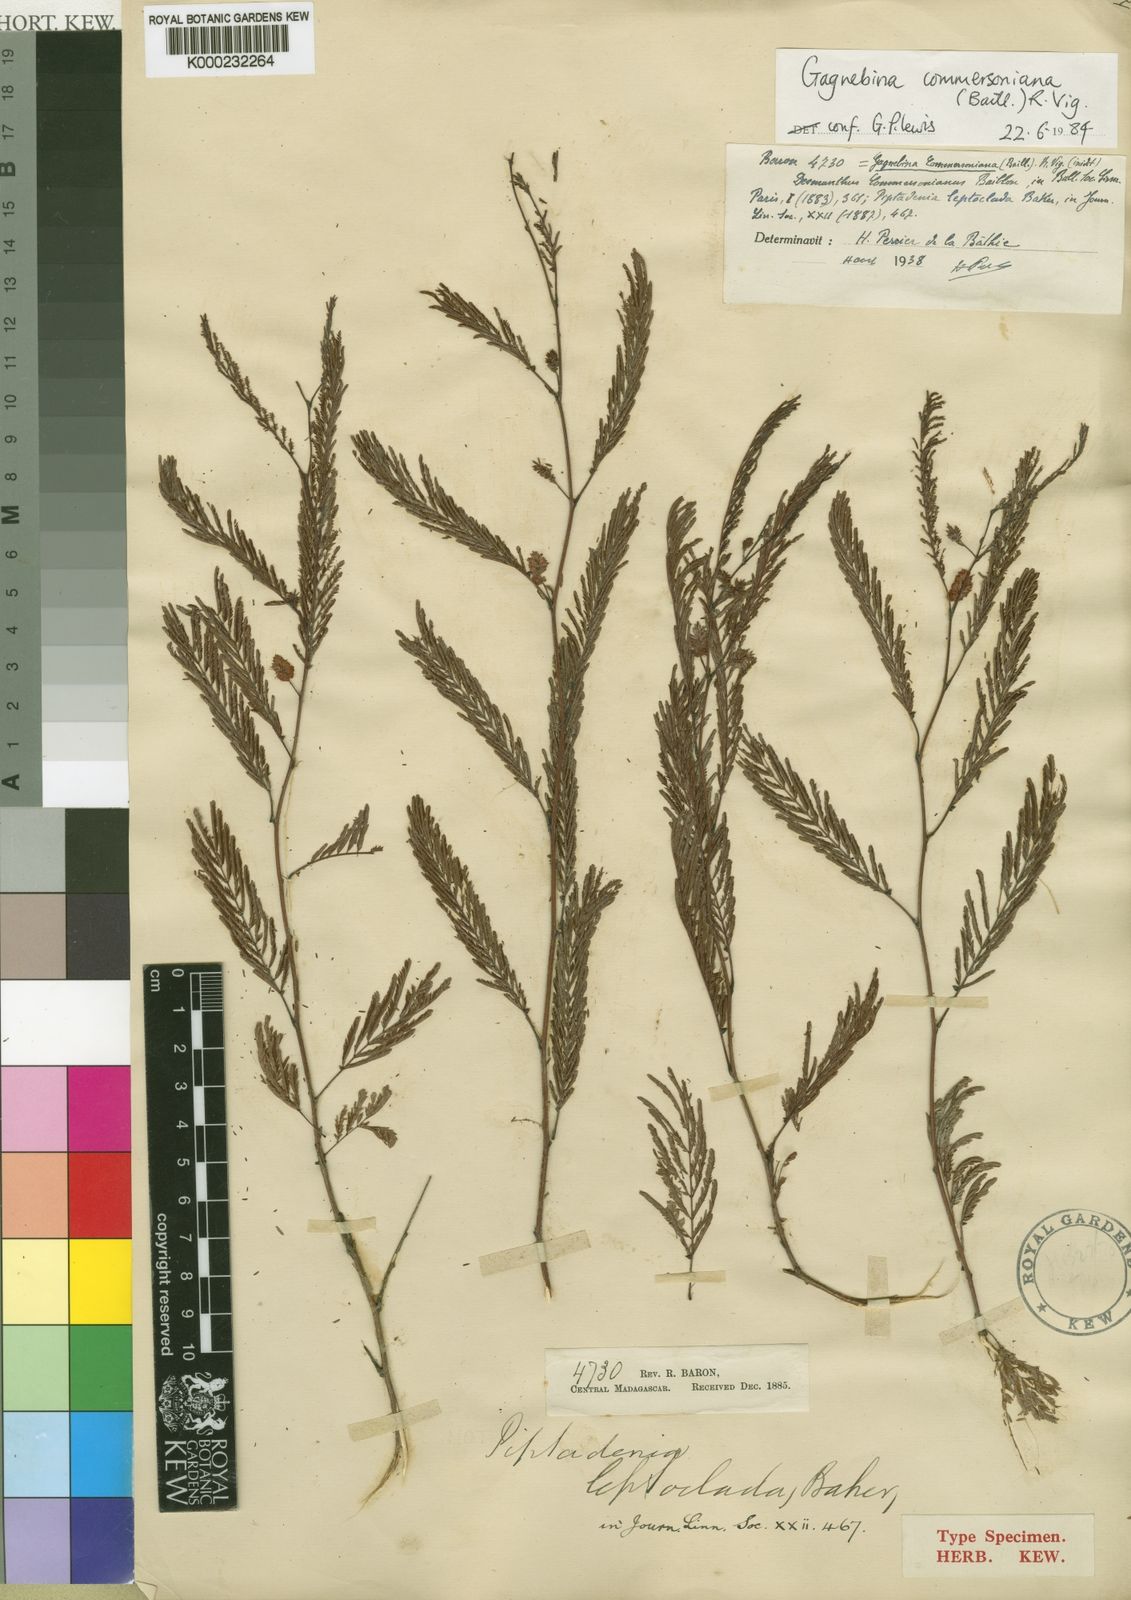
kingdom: Plantae
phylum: Tracheophyta
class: Magnoliopsida
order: Fabales
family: Fabaceae
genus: Gagnebina
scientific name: Gagnebina commersoniana
